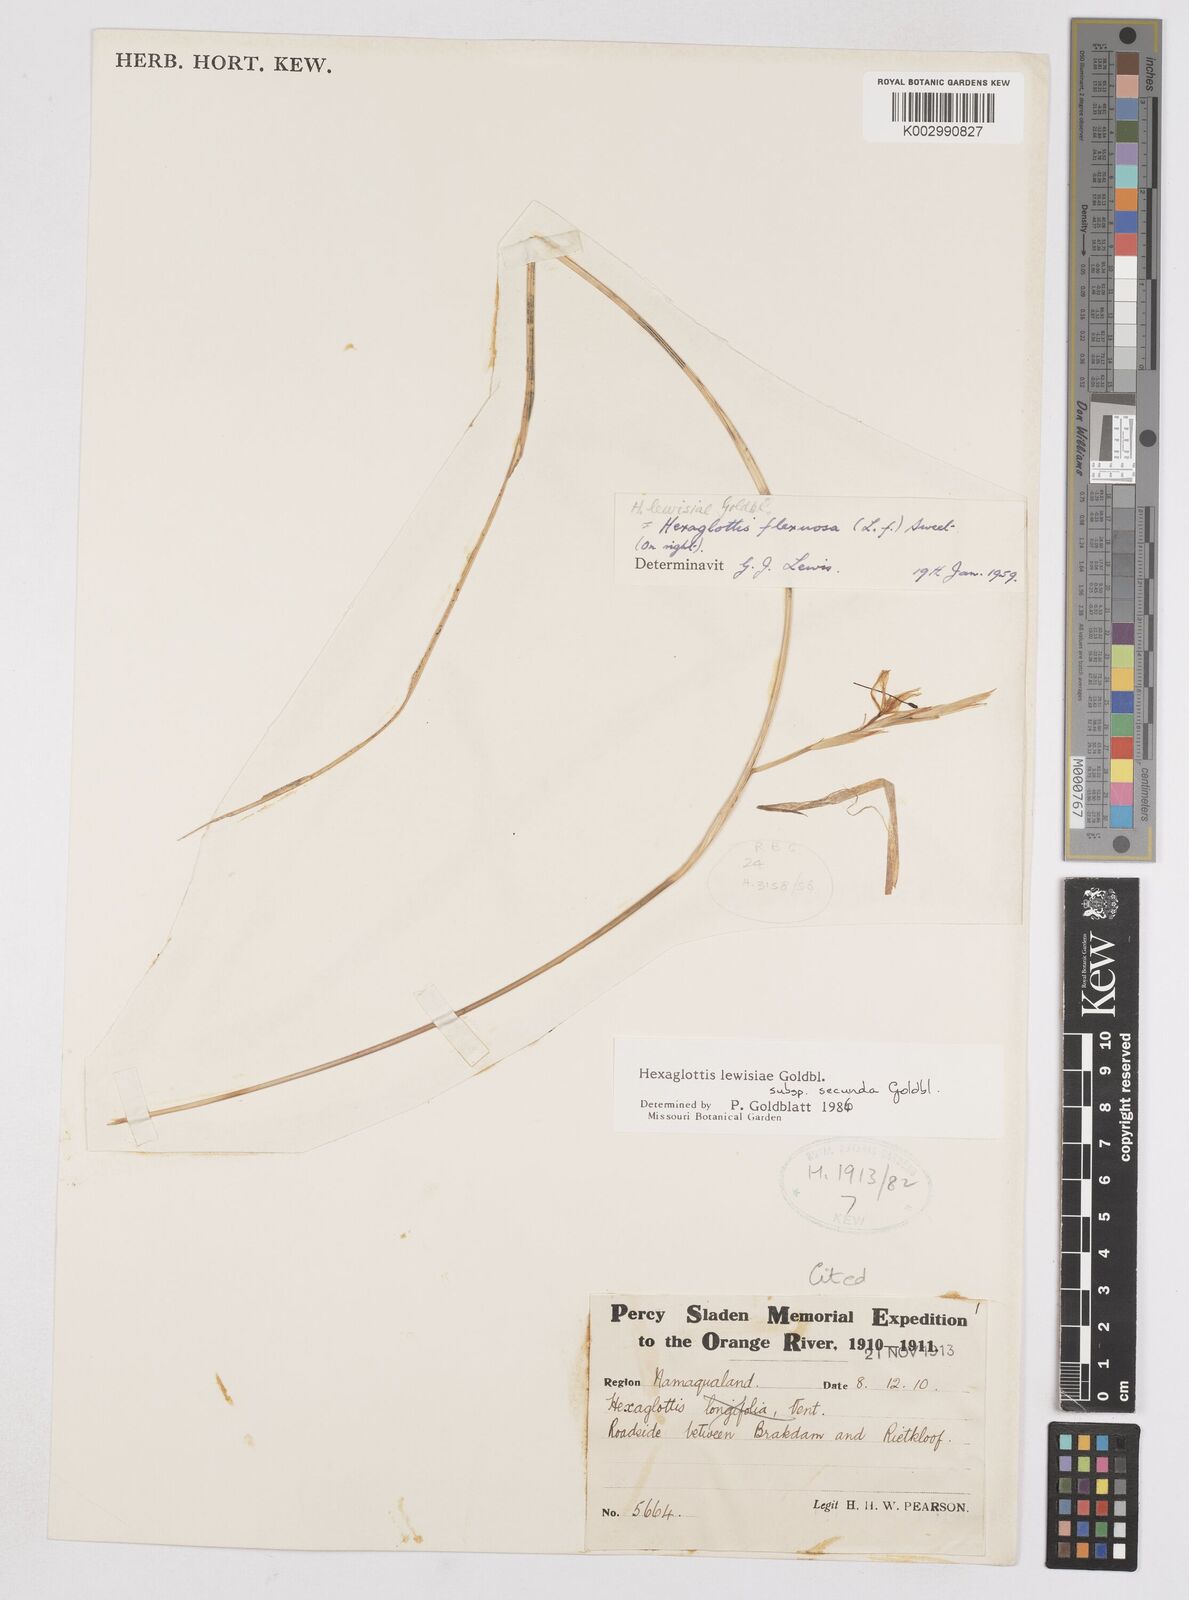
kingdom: Plantae
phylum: Tracheophyta
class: Liliopsida
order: Asparagales
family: Iridaceae
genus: Moraea
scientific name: Moraea lewisiae
